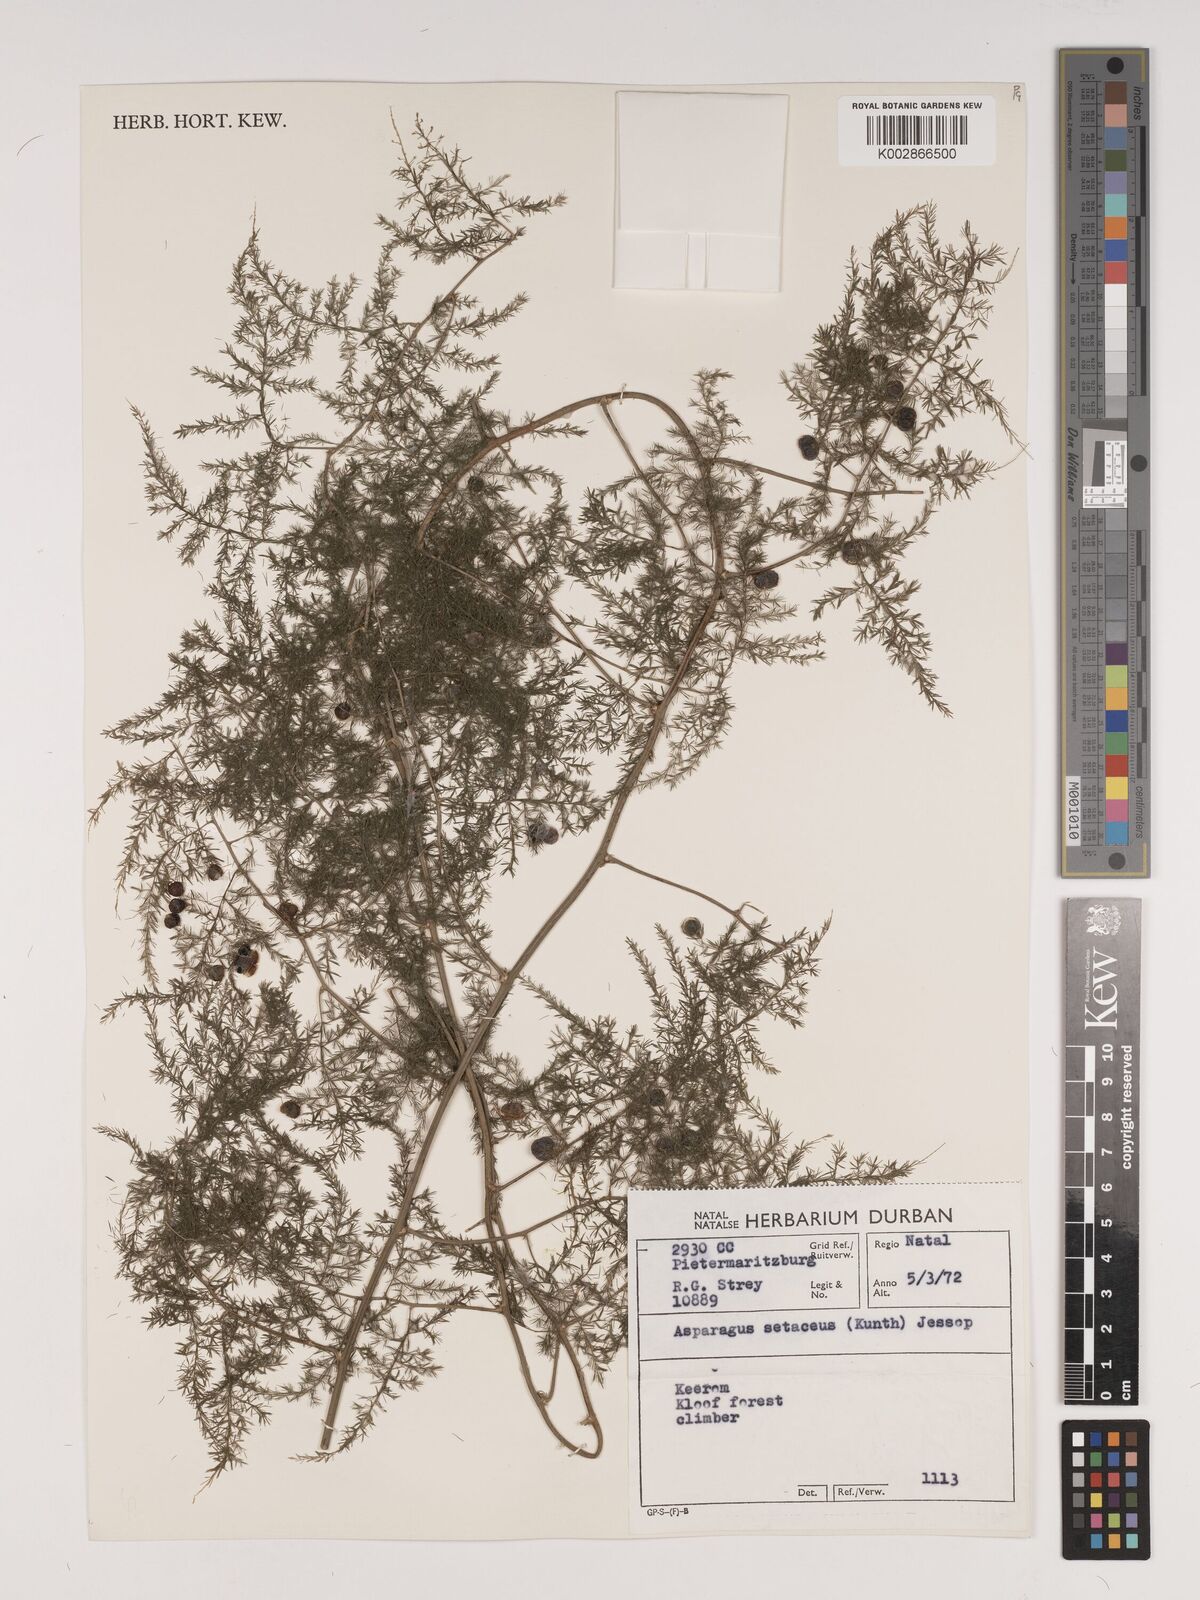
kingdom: Plantae
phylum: Tracheophyta
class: Liliopsida
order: Asparagales
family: Asparagaceae
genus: Asparagus
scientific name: Asparagus setaceus
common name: Common asparagus fern
